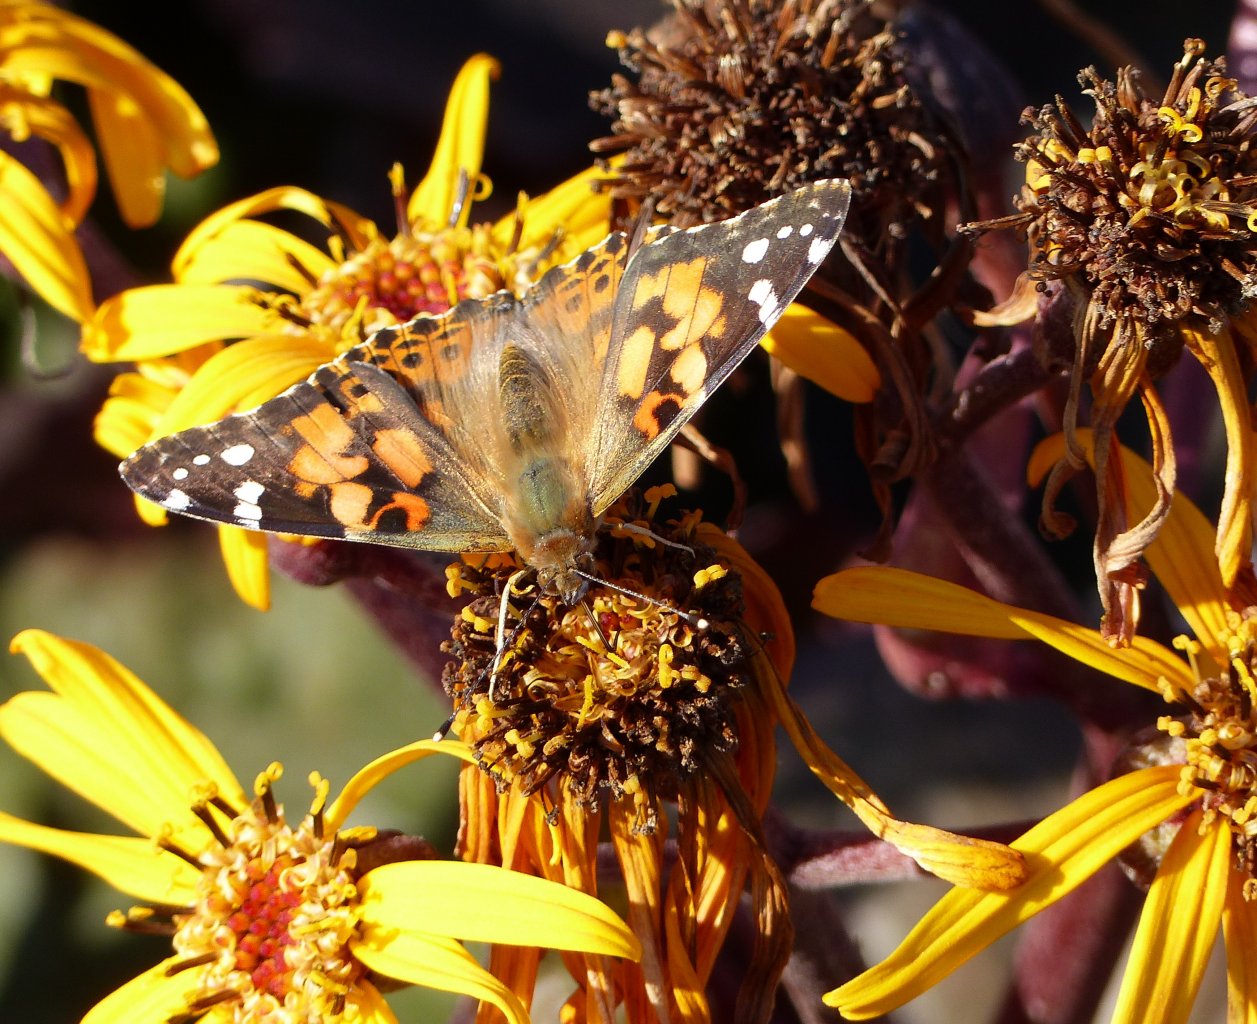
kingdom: Animalia
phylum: Arthropoda
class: Insecta
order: Lepidoptera
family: Nymphalidae
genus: Vanessa
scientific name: Vanessa cardui
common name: Painted Lady
